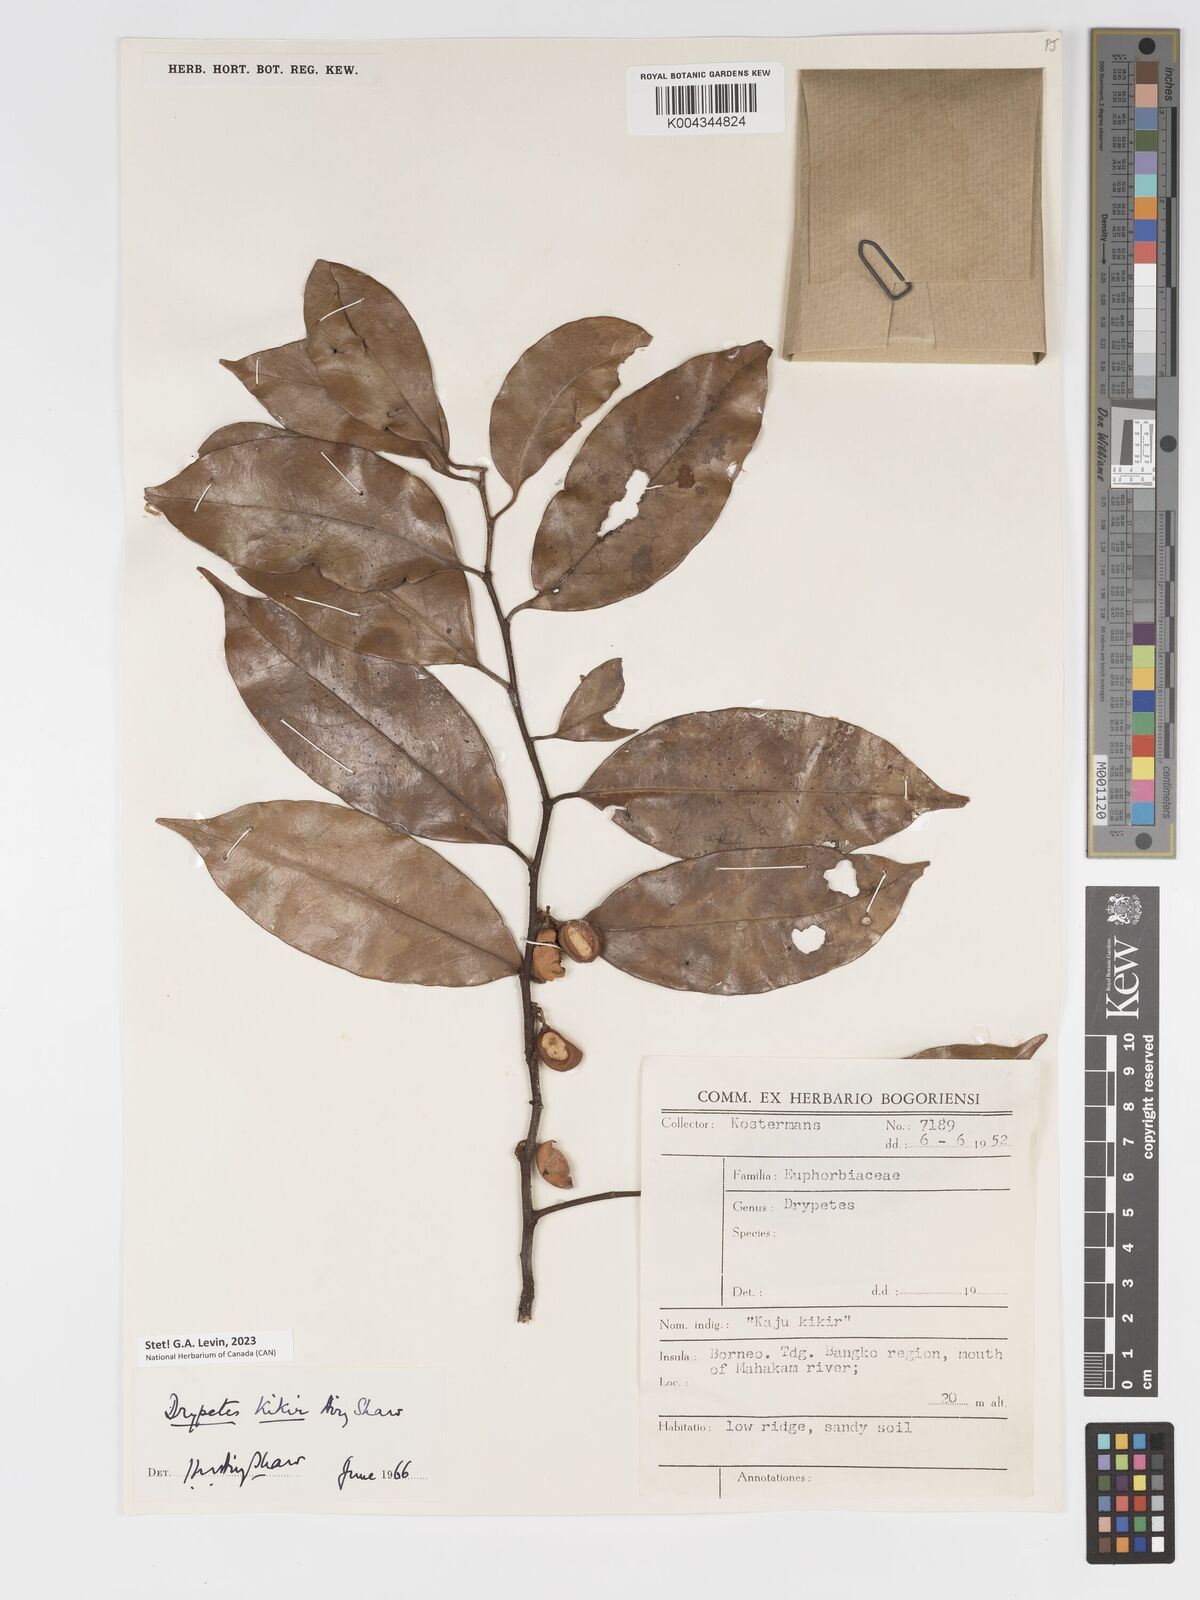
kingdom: Plantae
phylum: Tracheophyta
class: Magnoliopsida
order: Malpighiales
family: Putranjivaceae
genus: Drypetes
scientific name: Drypetes kikir
